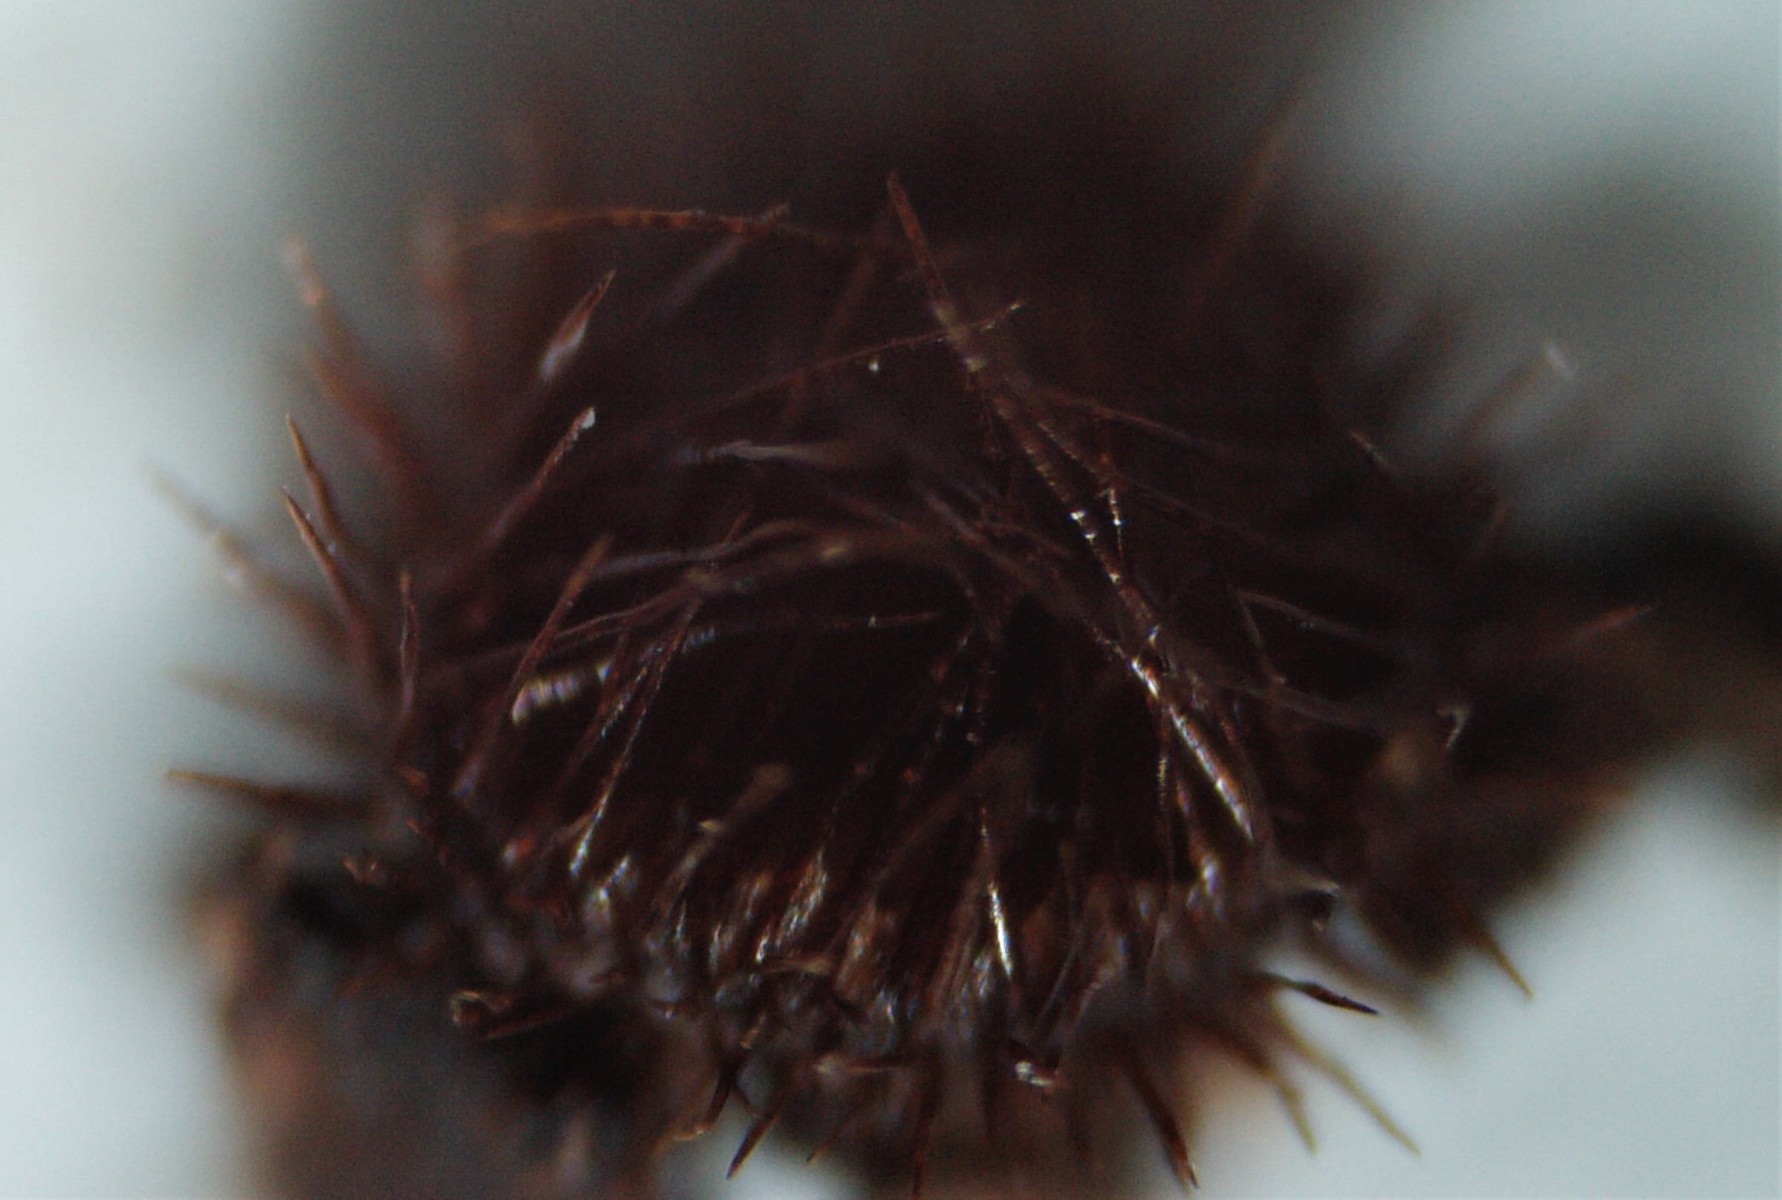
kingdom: Fungi
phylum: Ascomycota
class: Pezizomycetes
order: Pezizales
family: Pyronemataceae
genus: Scutellinia
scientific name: Scutellinia setosa
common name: pindsvine-skjoldbæger
